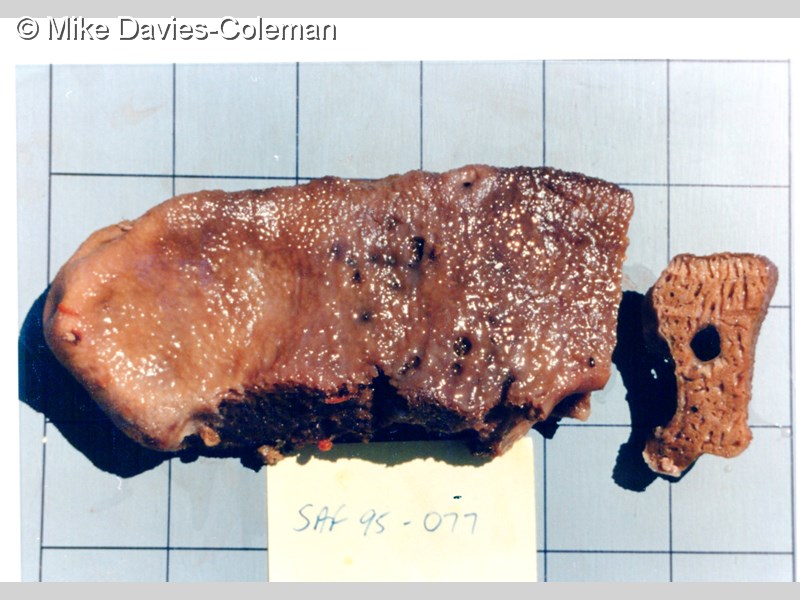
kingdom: Animalia
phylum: Porifera
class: Demospongiae
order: Dictyoceratida
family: Spongiidae
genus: Hippospongia
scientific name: Hippospongia
